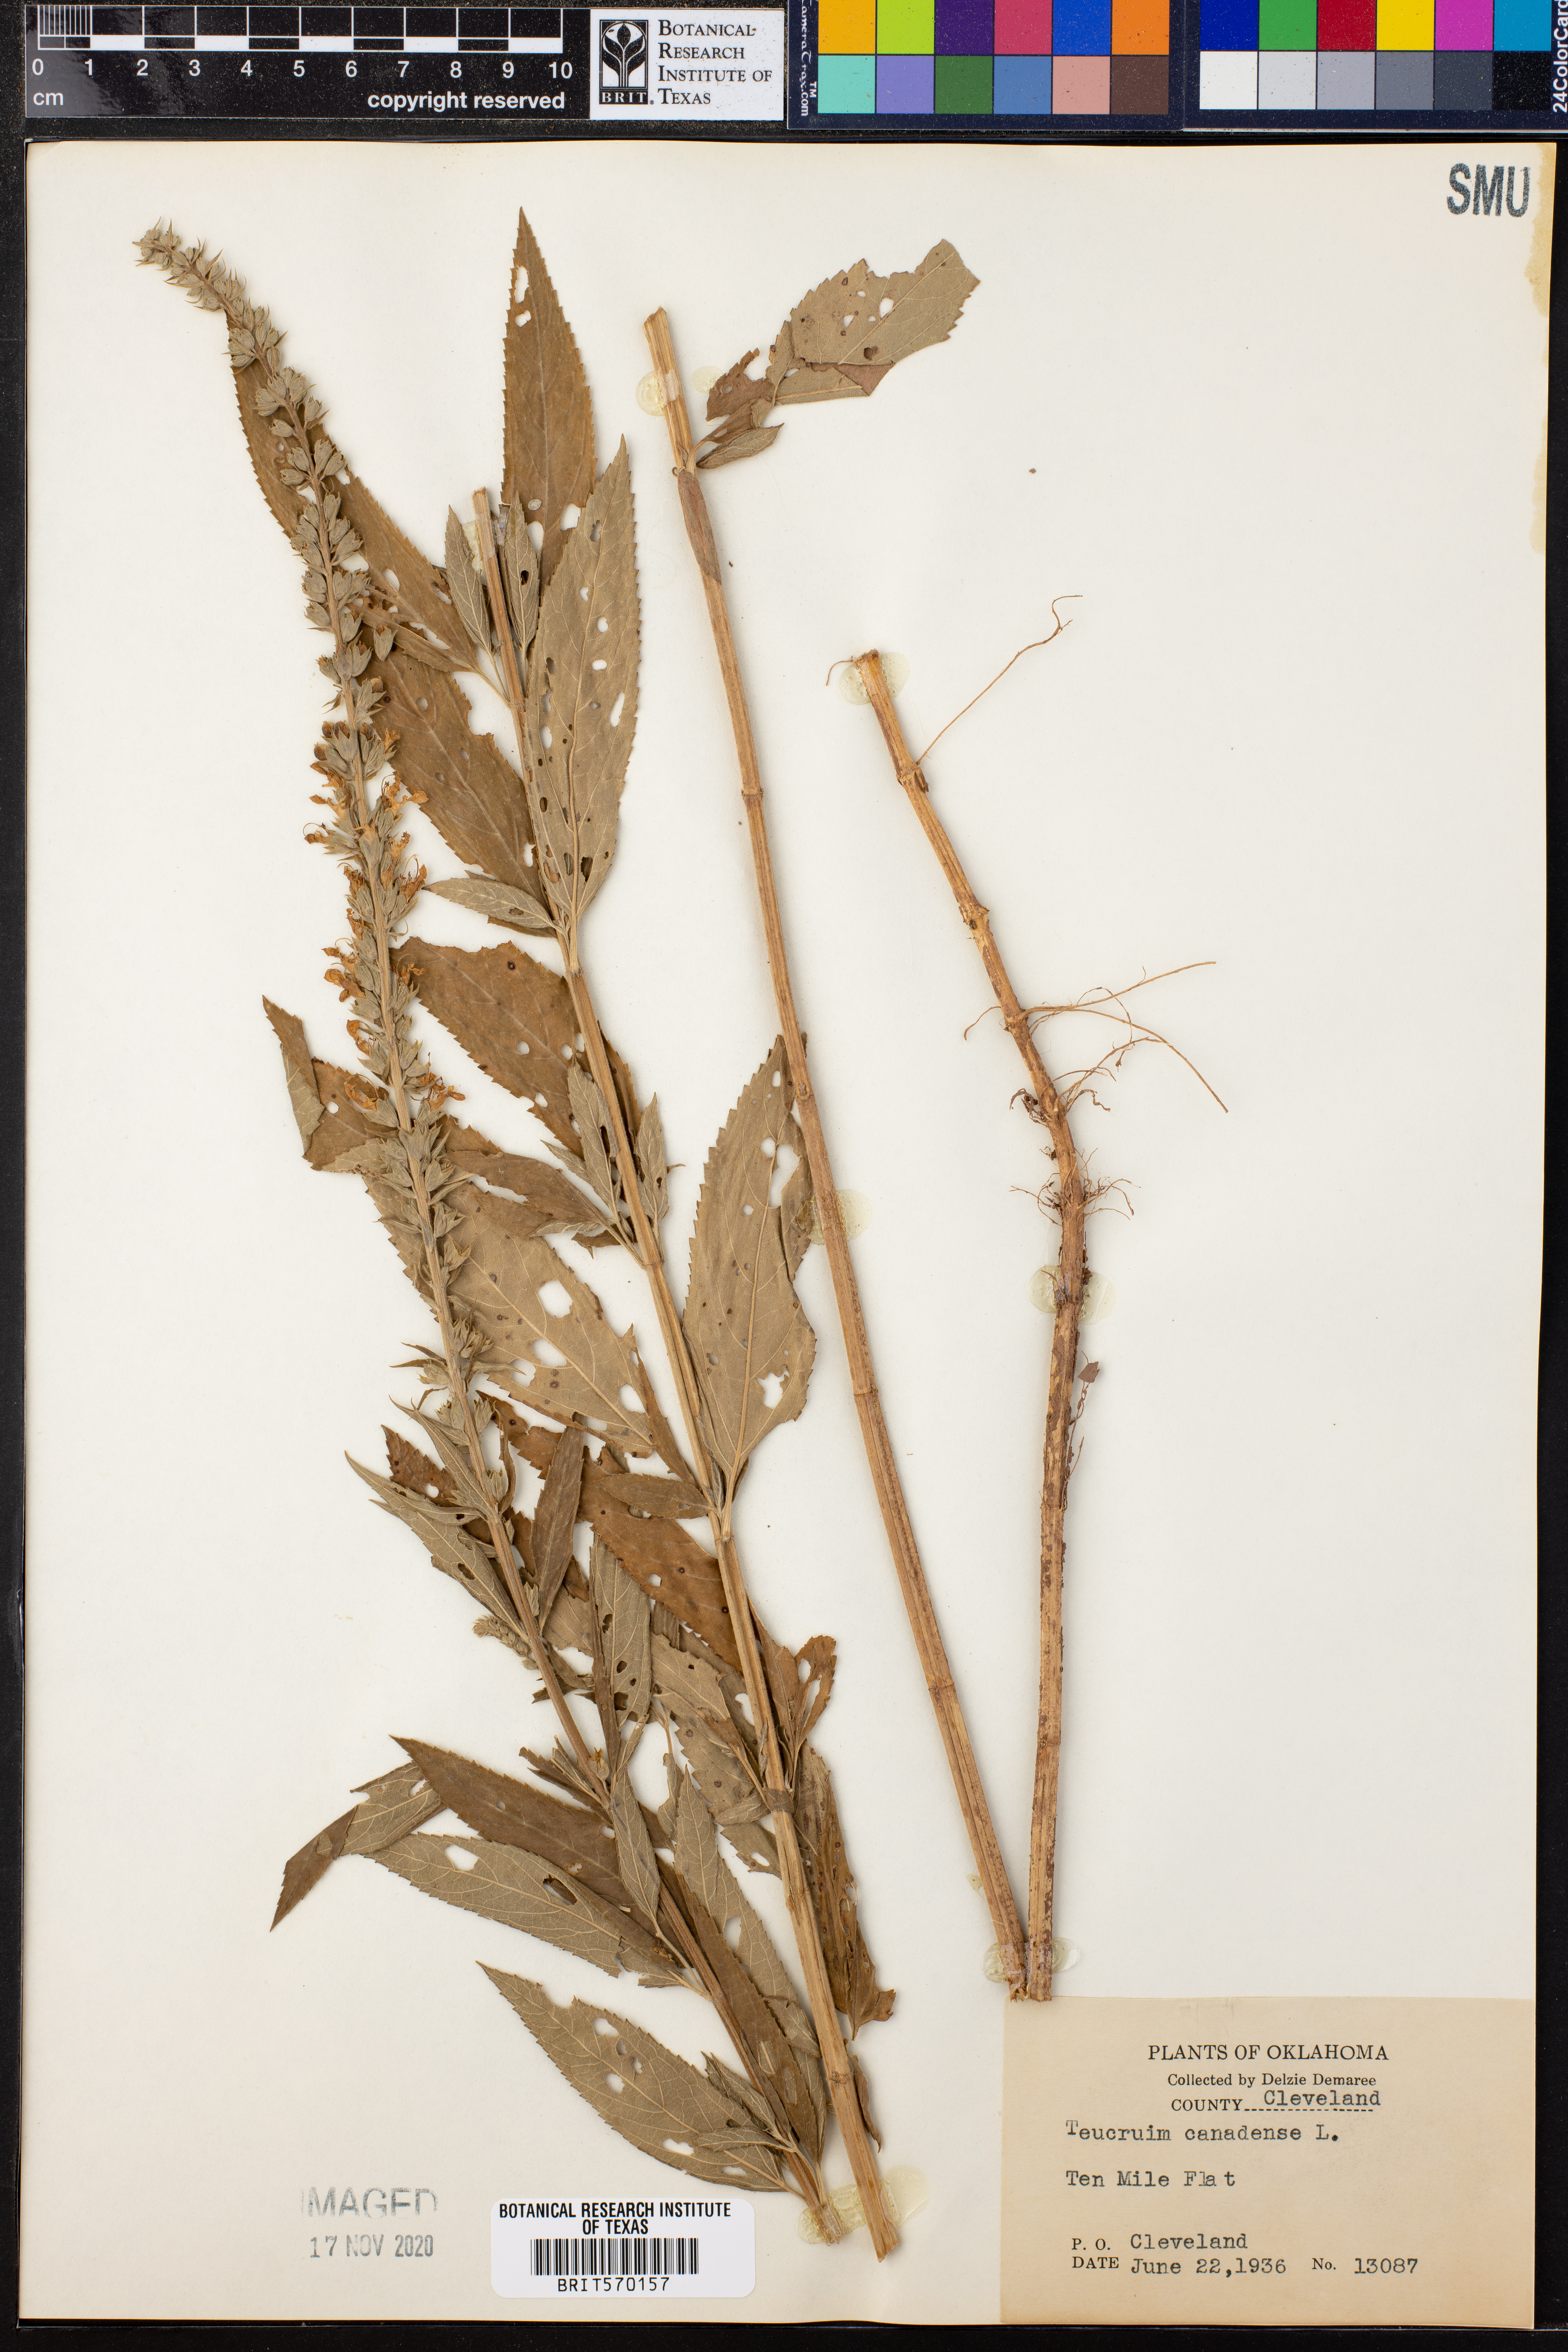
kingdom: Plantae
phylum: Tracheophyta
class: Magnoliopsida
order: Lamiales
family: Lamiaceae
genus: Teucrium
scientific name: Teucrium canadense
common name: American germander
